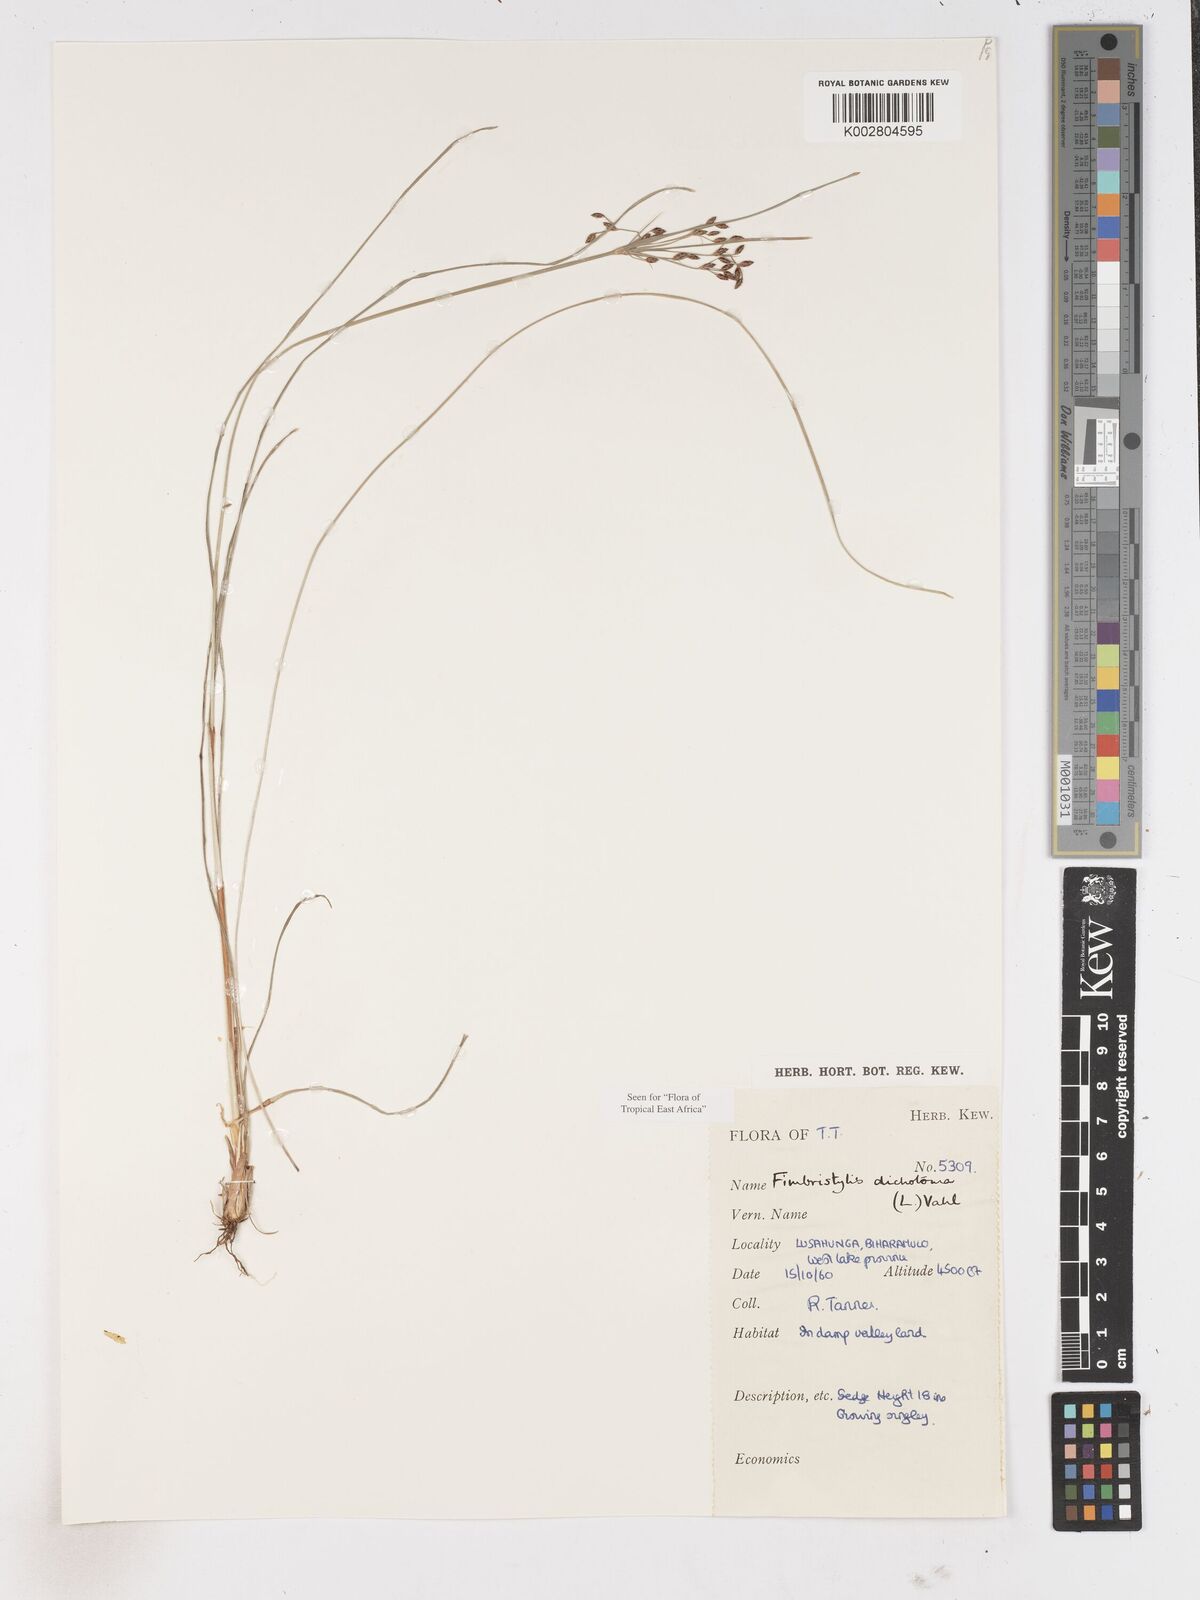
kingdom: Plantae
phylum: Tracheophyta
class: Liliopsida
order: Poales
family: Cyperaceae
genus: Fimbristylis
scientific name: Fimbristylis dichotoma
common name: Forked fimbry
